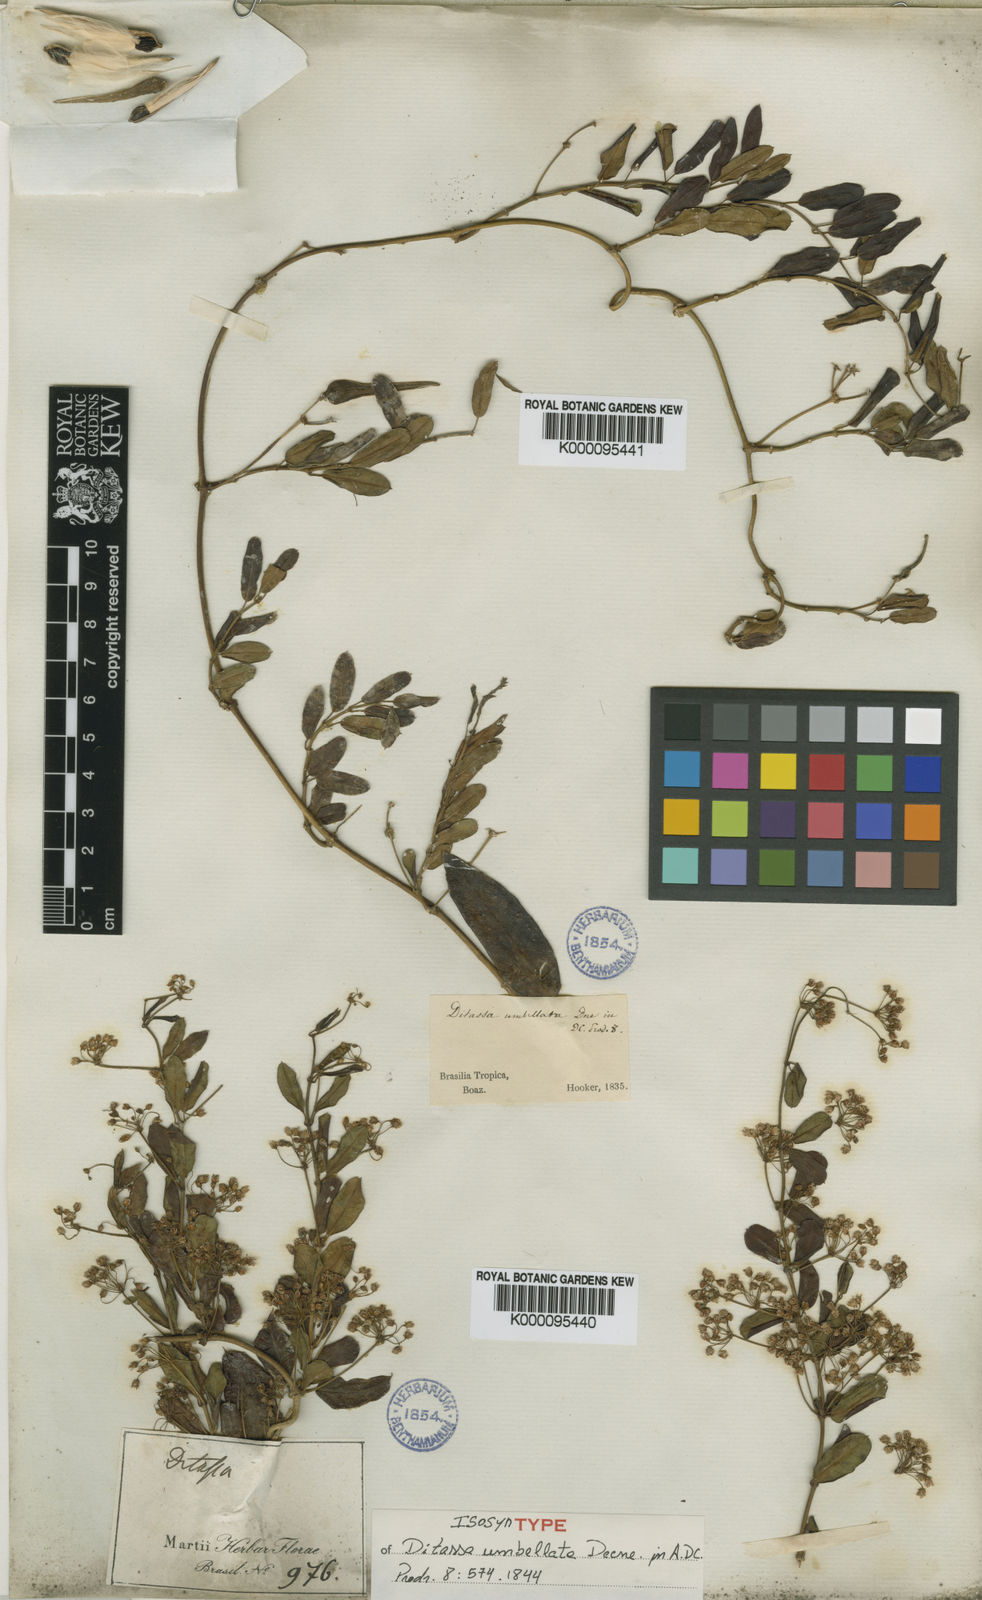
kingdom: Plantae
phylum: Tracheophyta
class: Magnoliopsida
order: Gentianales
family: Apocynaceae
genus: Ditassa
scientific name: Ditassa banksii
